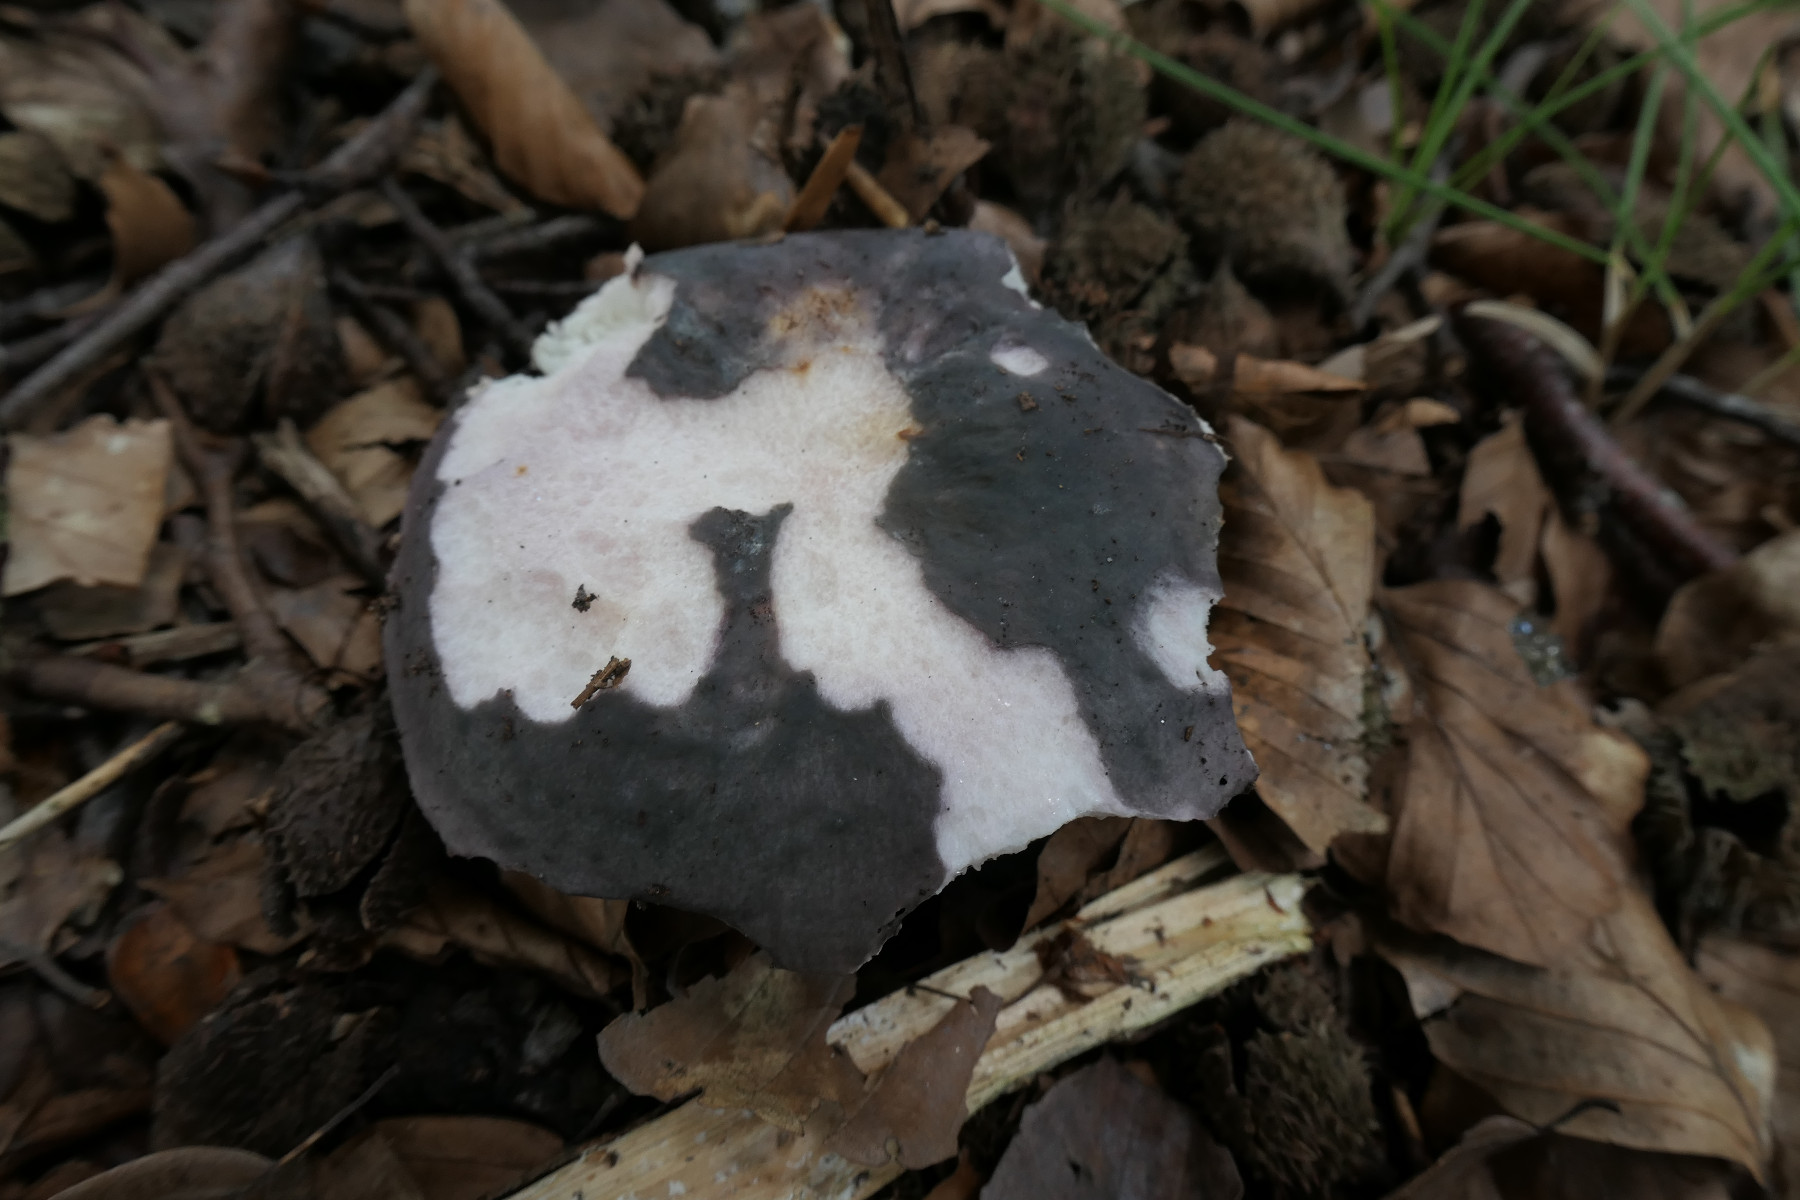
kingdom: Fungi
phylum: Basidiomycota
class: Agaricomycetes
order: Russulales
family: Russulaceae
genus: Russula
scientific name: Russula cyanoxantha
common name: broget skørhat
